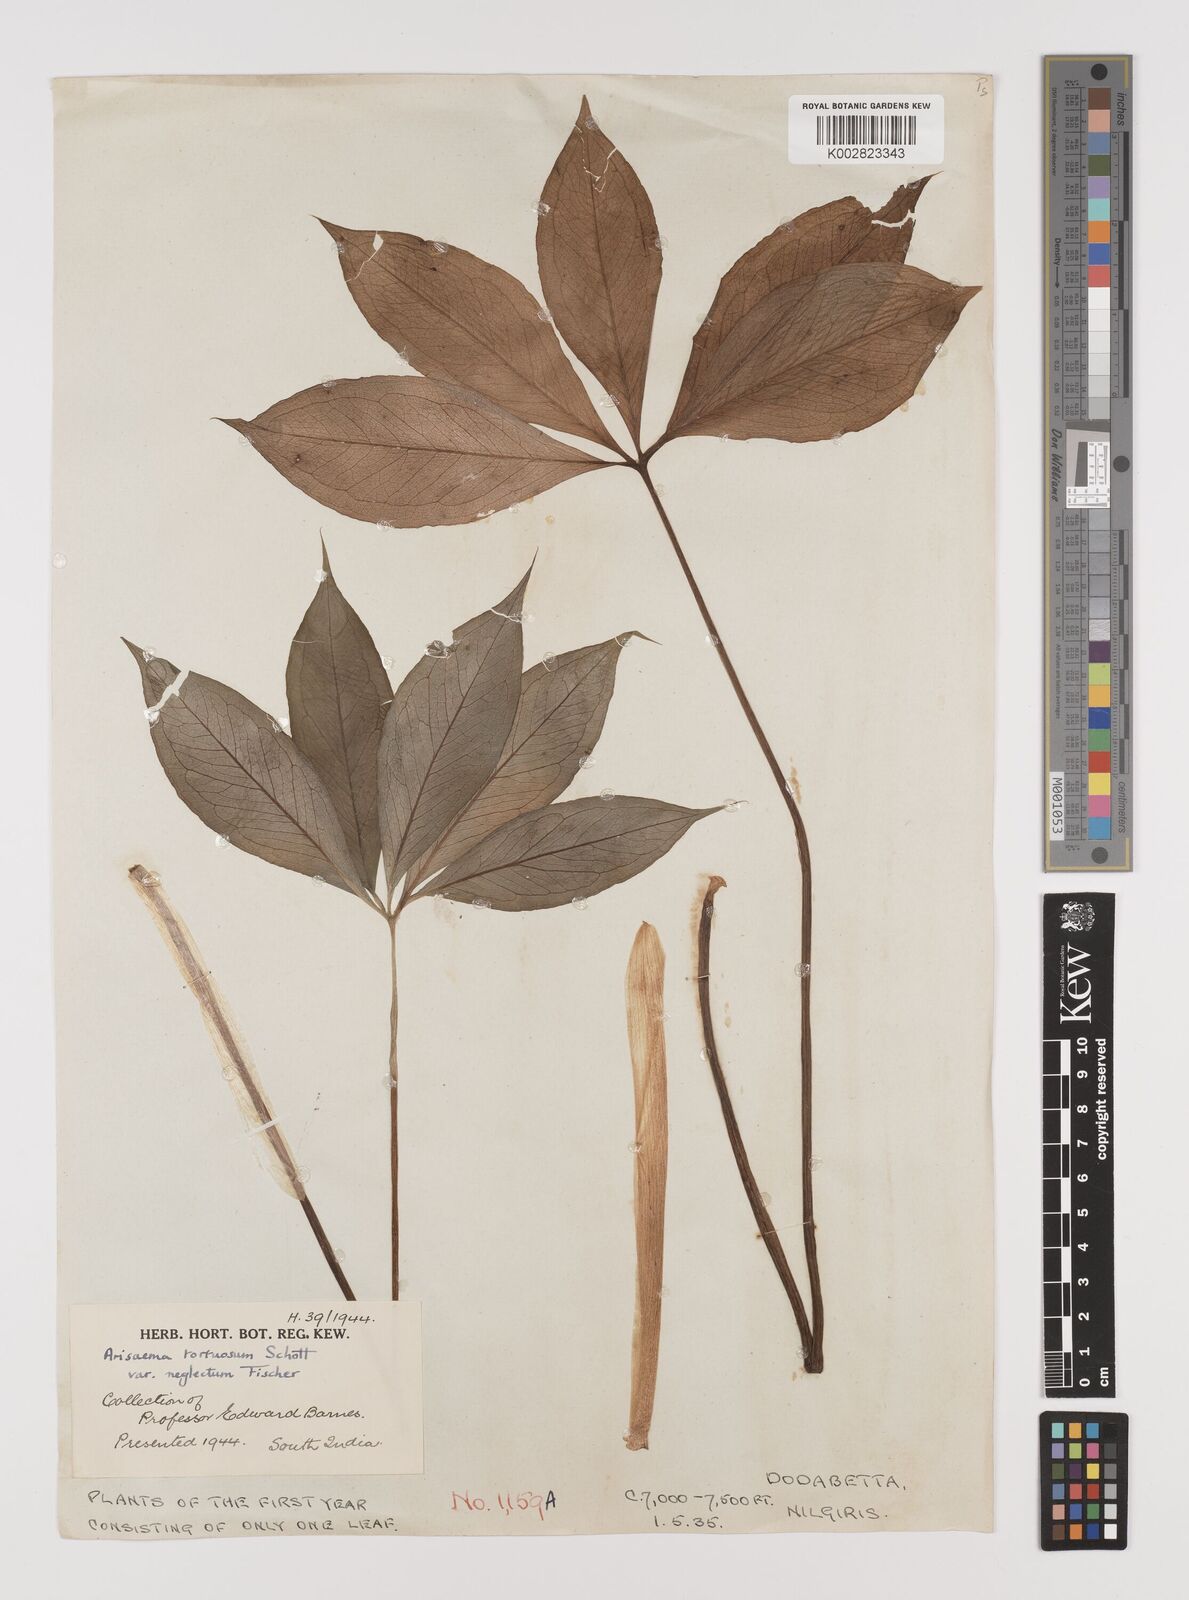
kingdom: Plantae
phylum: Tracheophyta
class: Liliopsida
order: Alismatales
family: Araceae
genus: Arisaema
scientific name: Arisaema tortuosum
